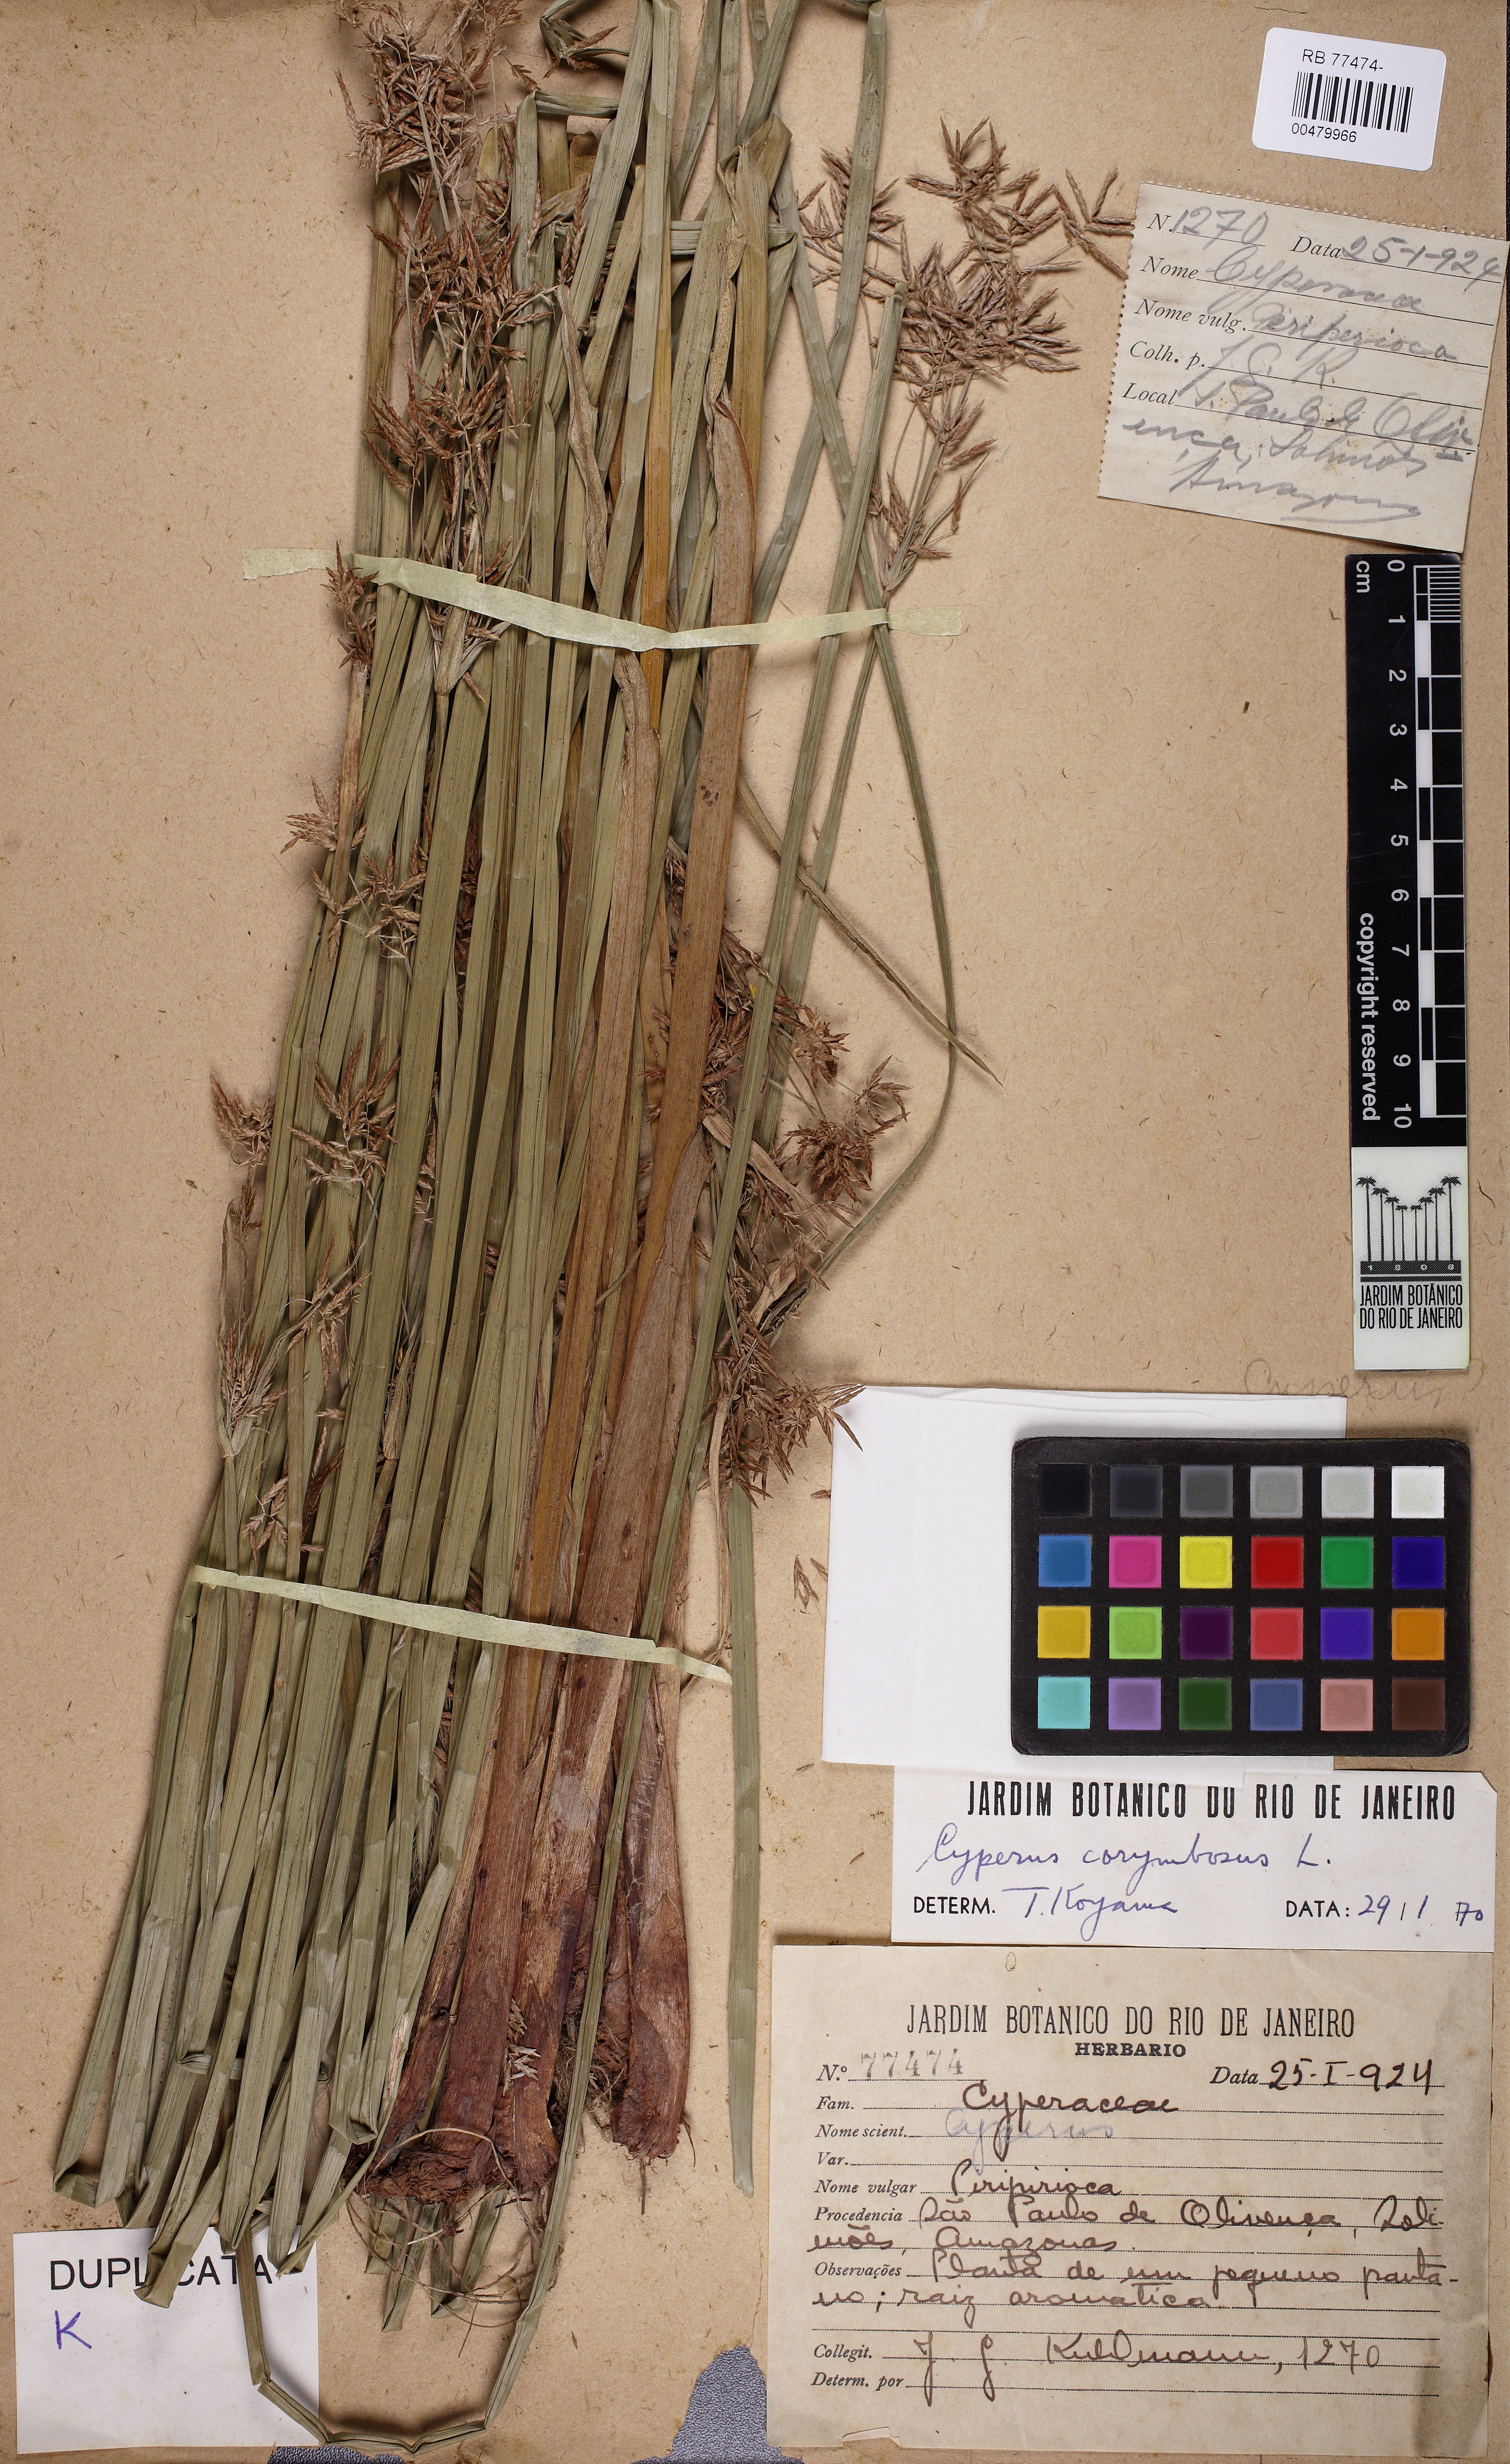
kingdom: Plantae
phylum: Tracheophyta
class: Liliopsida
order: Poales
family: Cyperaceae
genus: Cyperus
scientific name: Cyperus esculentus
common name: Yellow nutsedge
